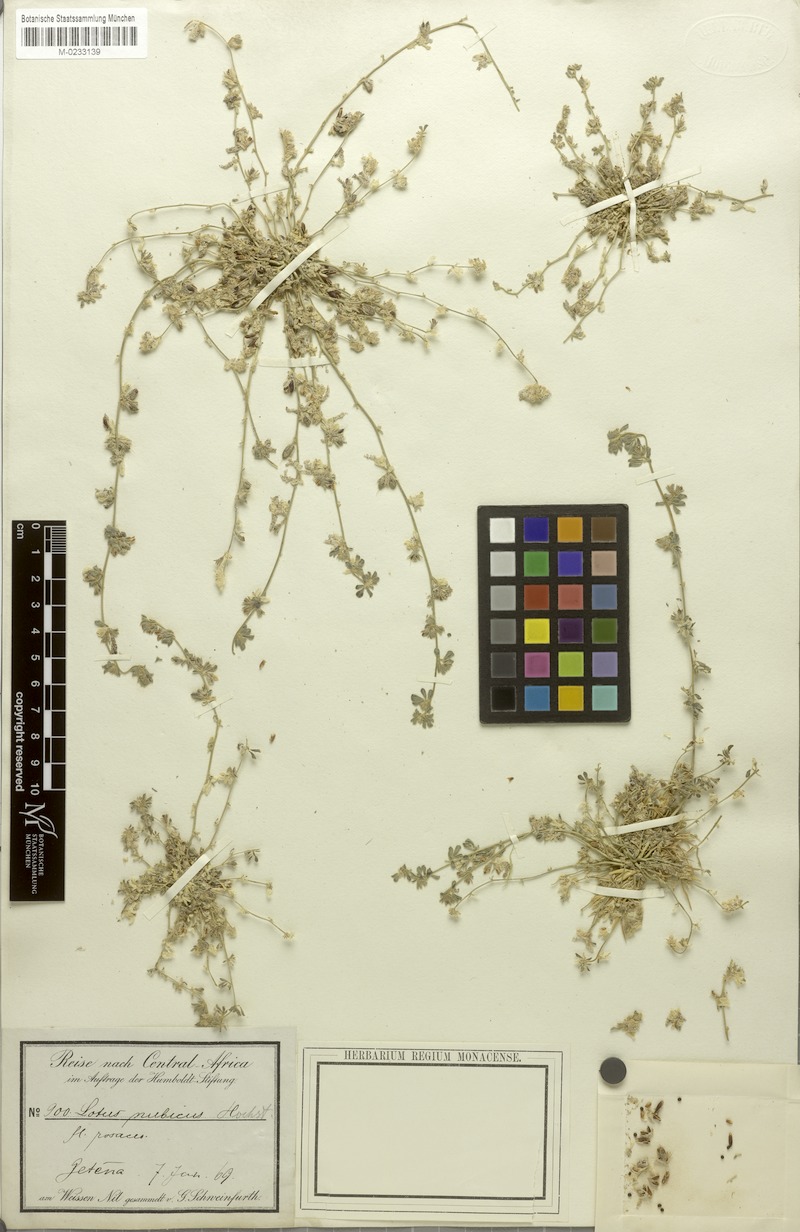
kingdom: Plantae
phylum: Tracheophyta
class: Magnoliopsida
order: Fabales
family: Fabaceae
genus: Lotus
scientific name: Lotus nubicus
